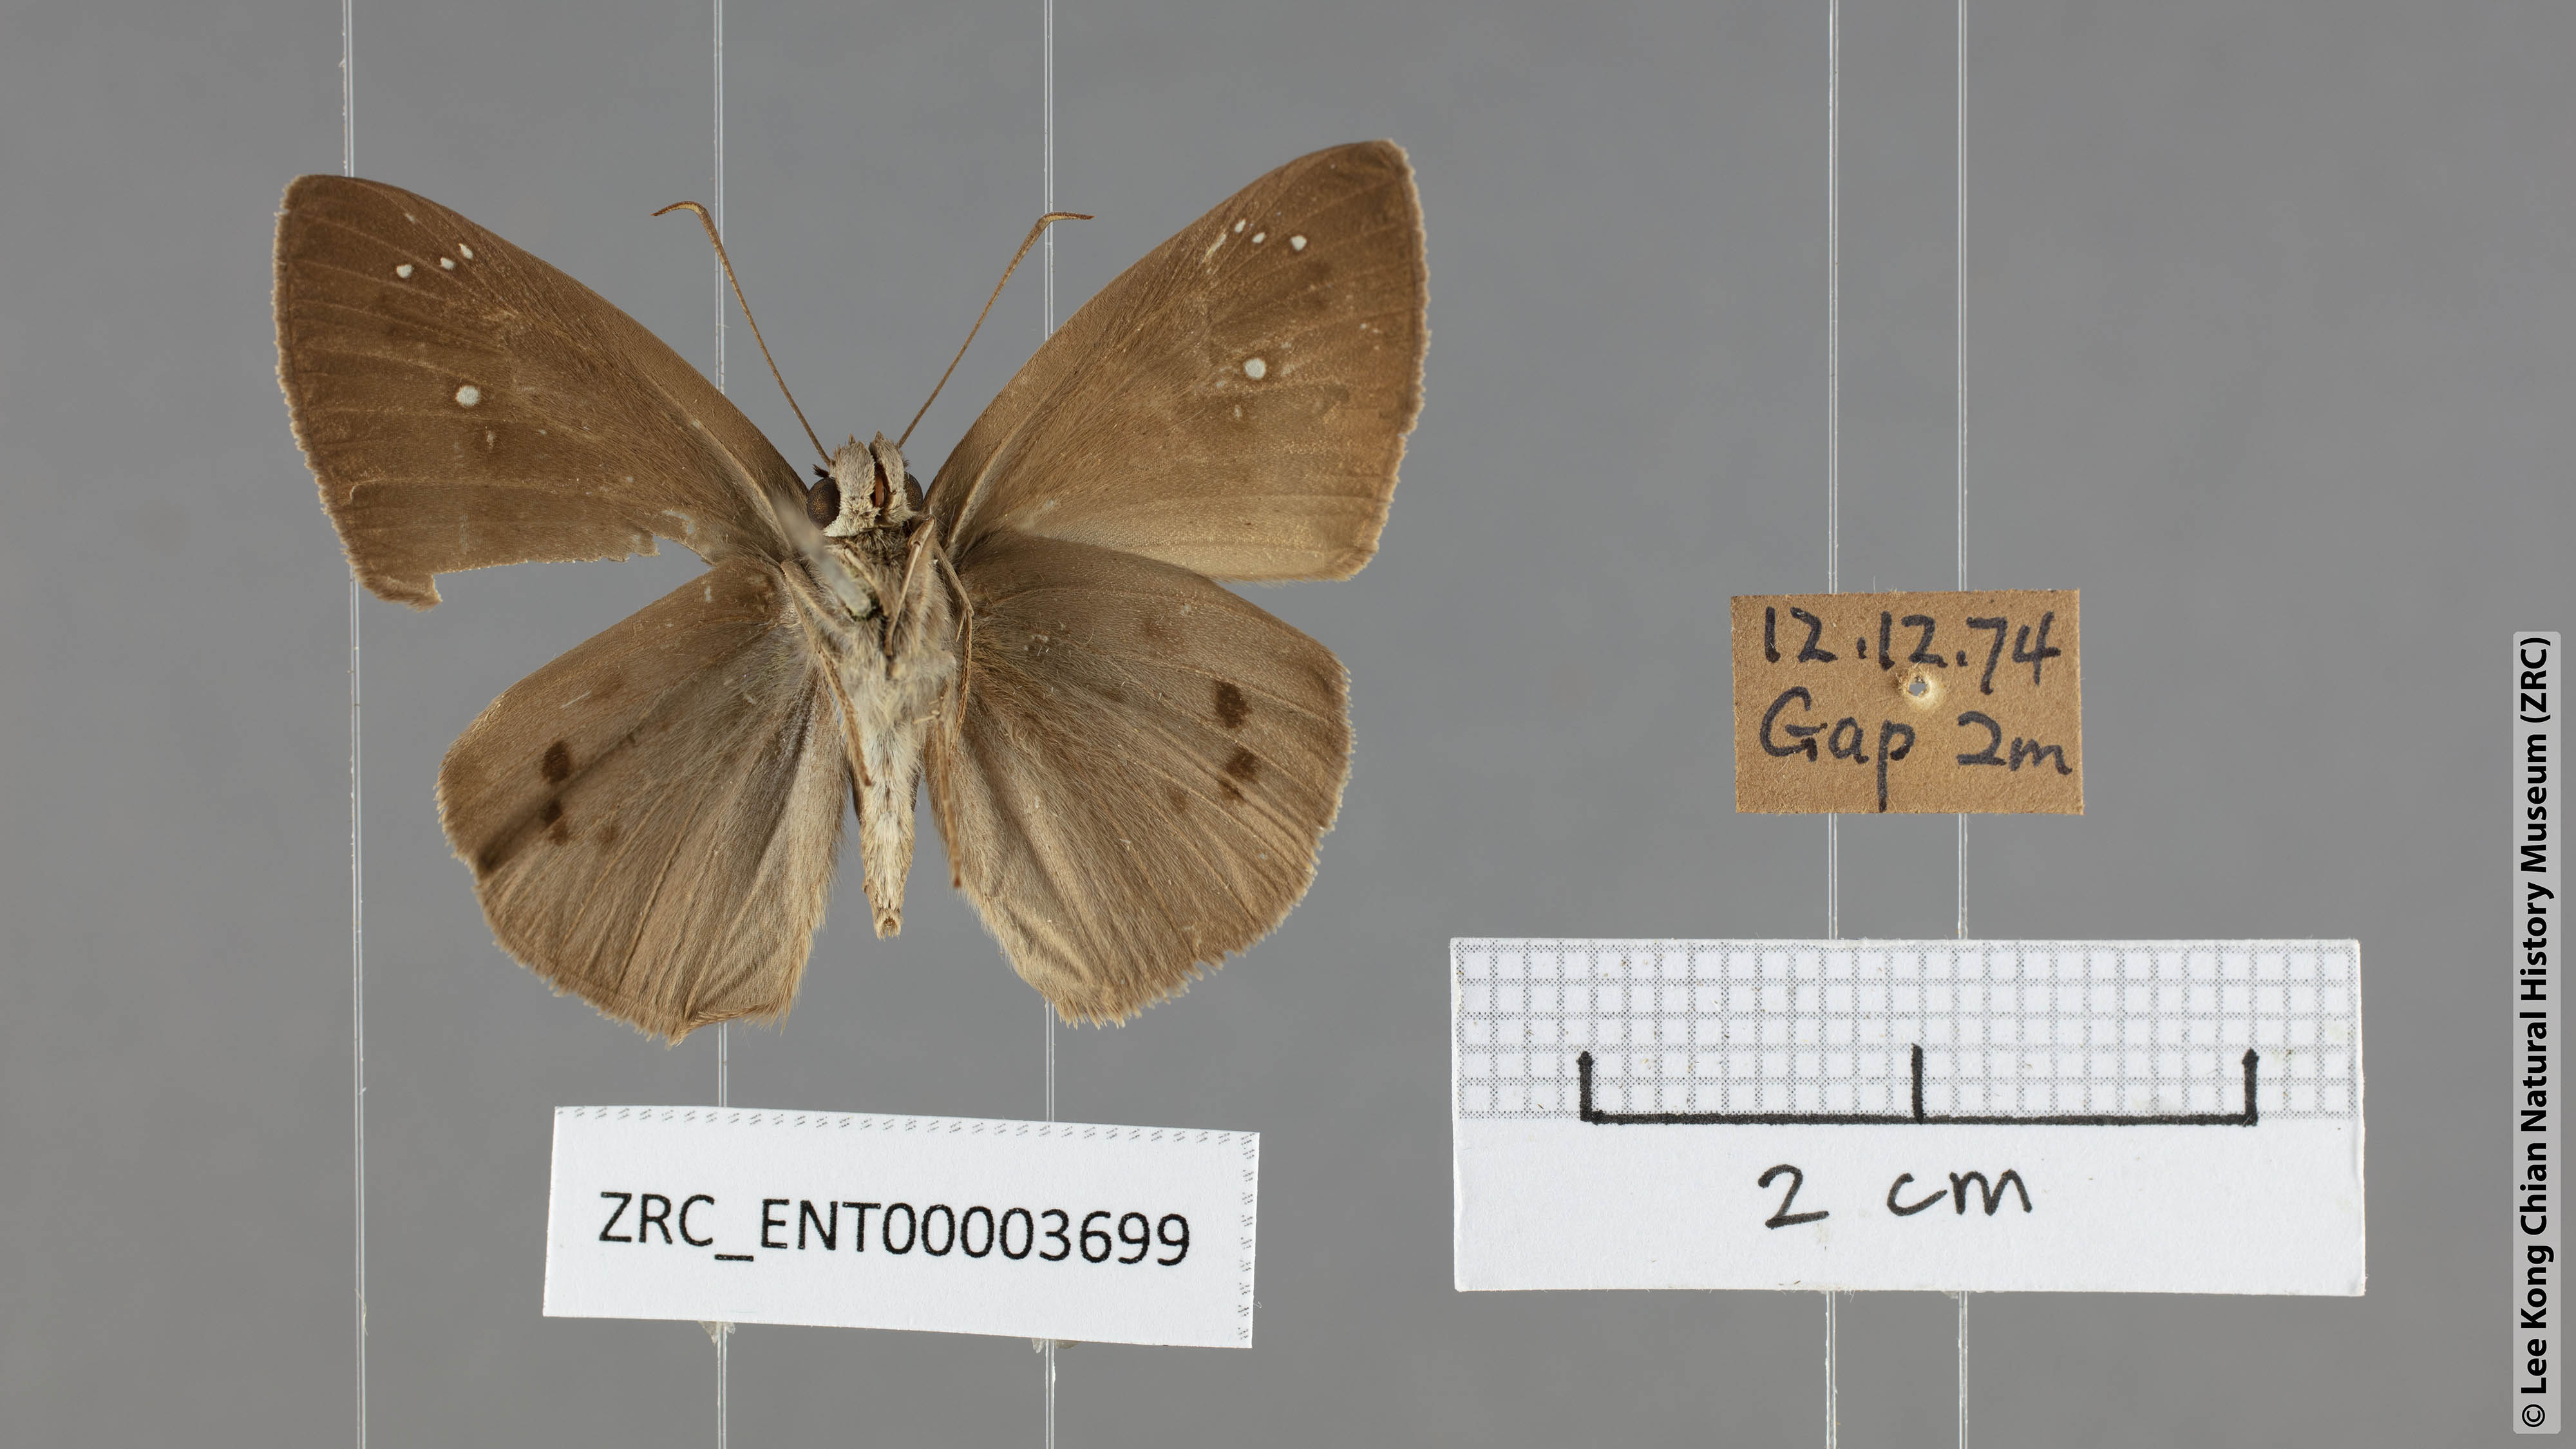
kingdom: Animalia
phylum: Arthropoda
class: Insecta
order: Lepidoptera
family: Hesperiidae
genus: Tagiades
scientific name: Tagiades japetus
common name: Pied flat
